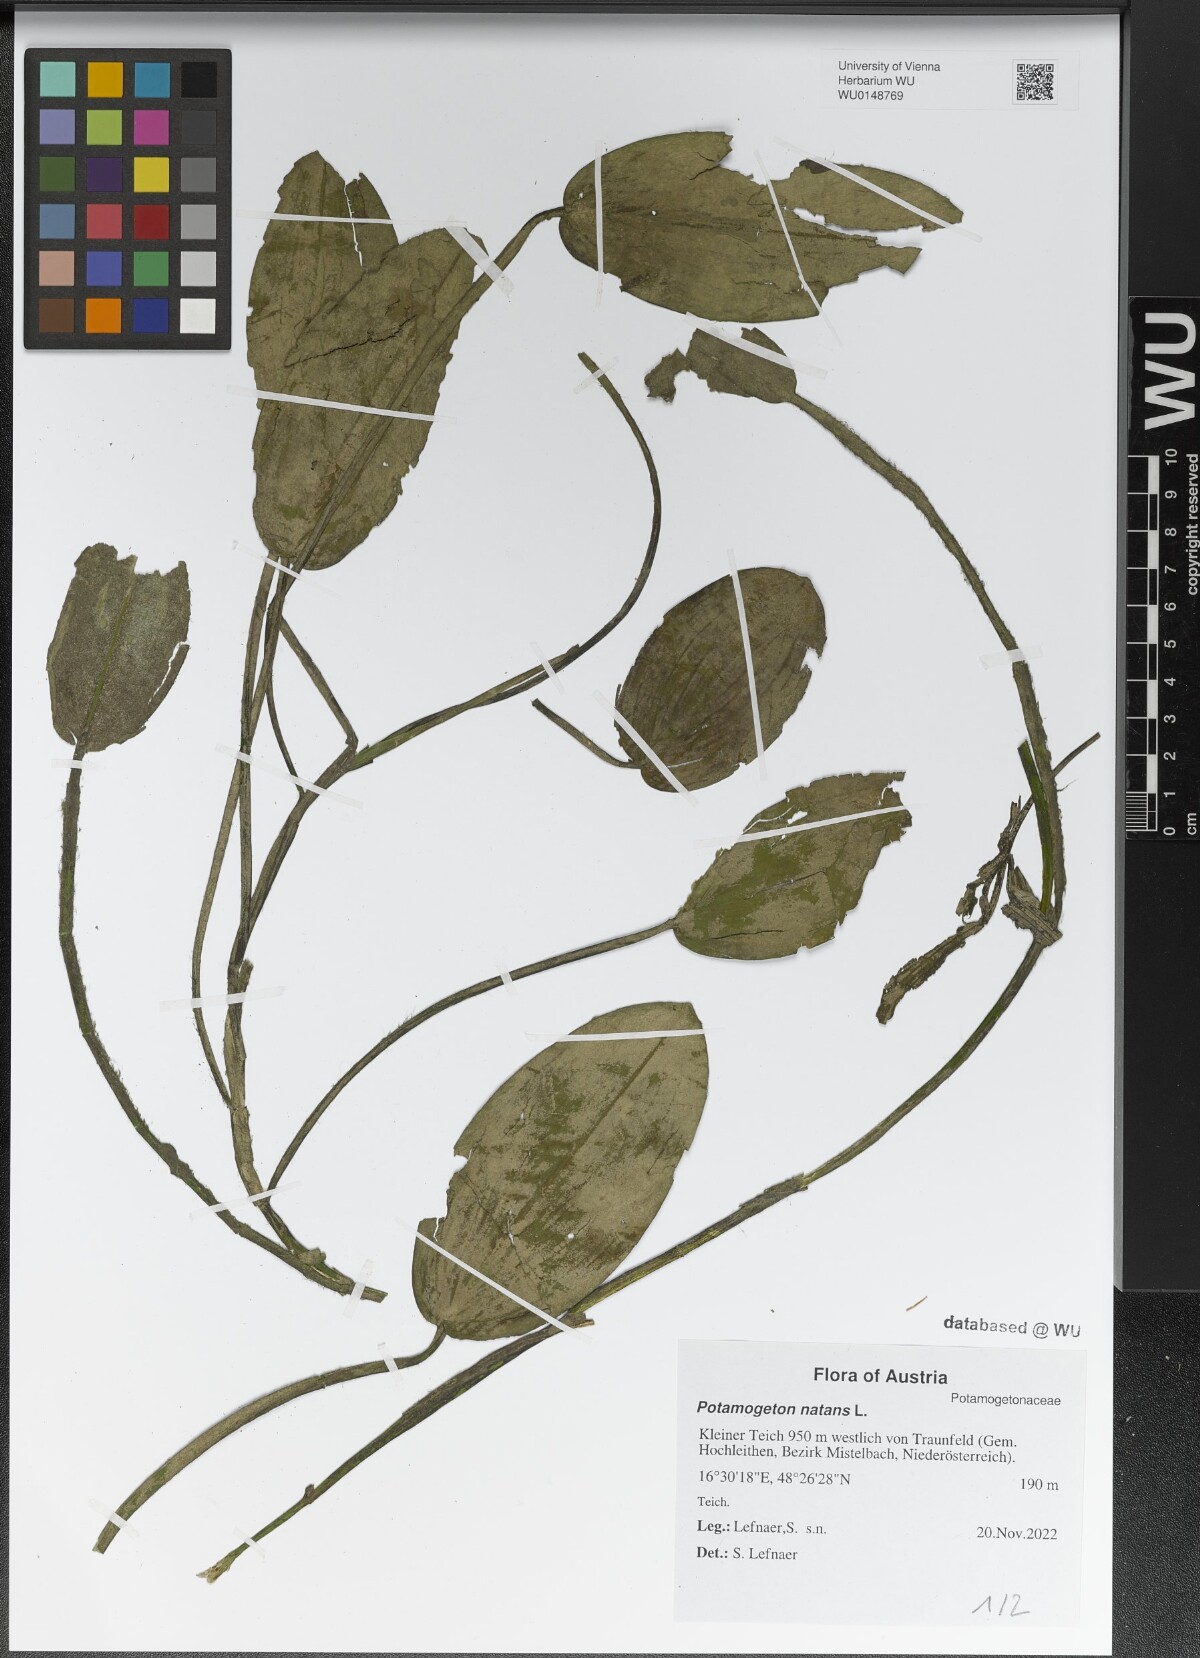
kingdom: Plantae
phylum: Tracheophyta
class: Liliopsida
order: Alismatales
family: Potamogetonaceae
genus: Potamogeton
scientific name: Potamogeton natans
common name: Broad-leaved pondweed
